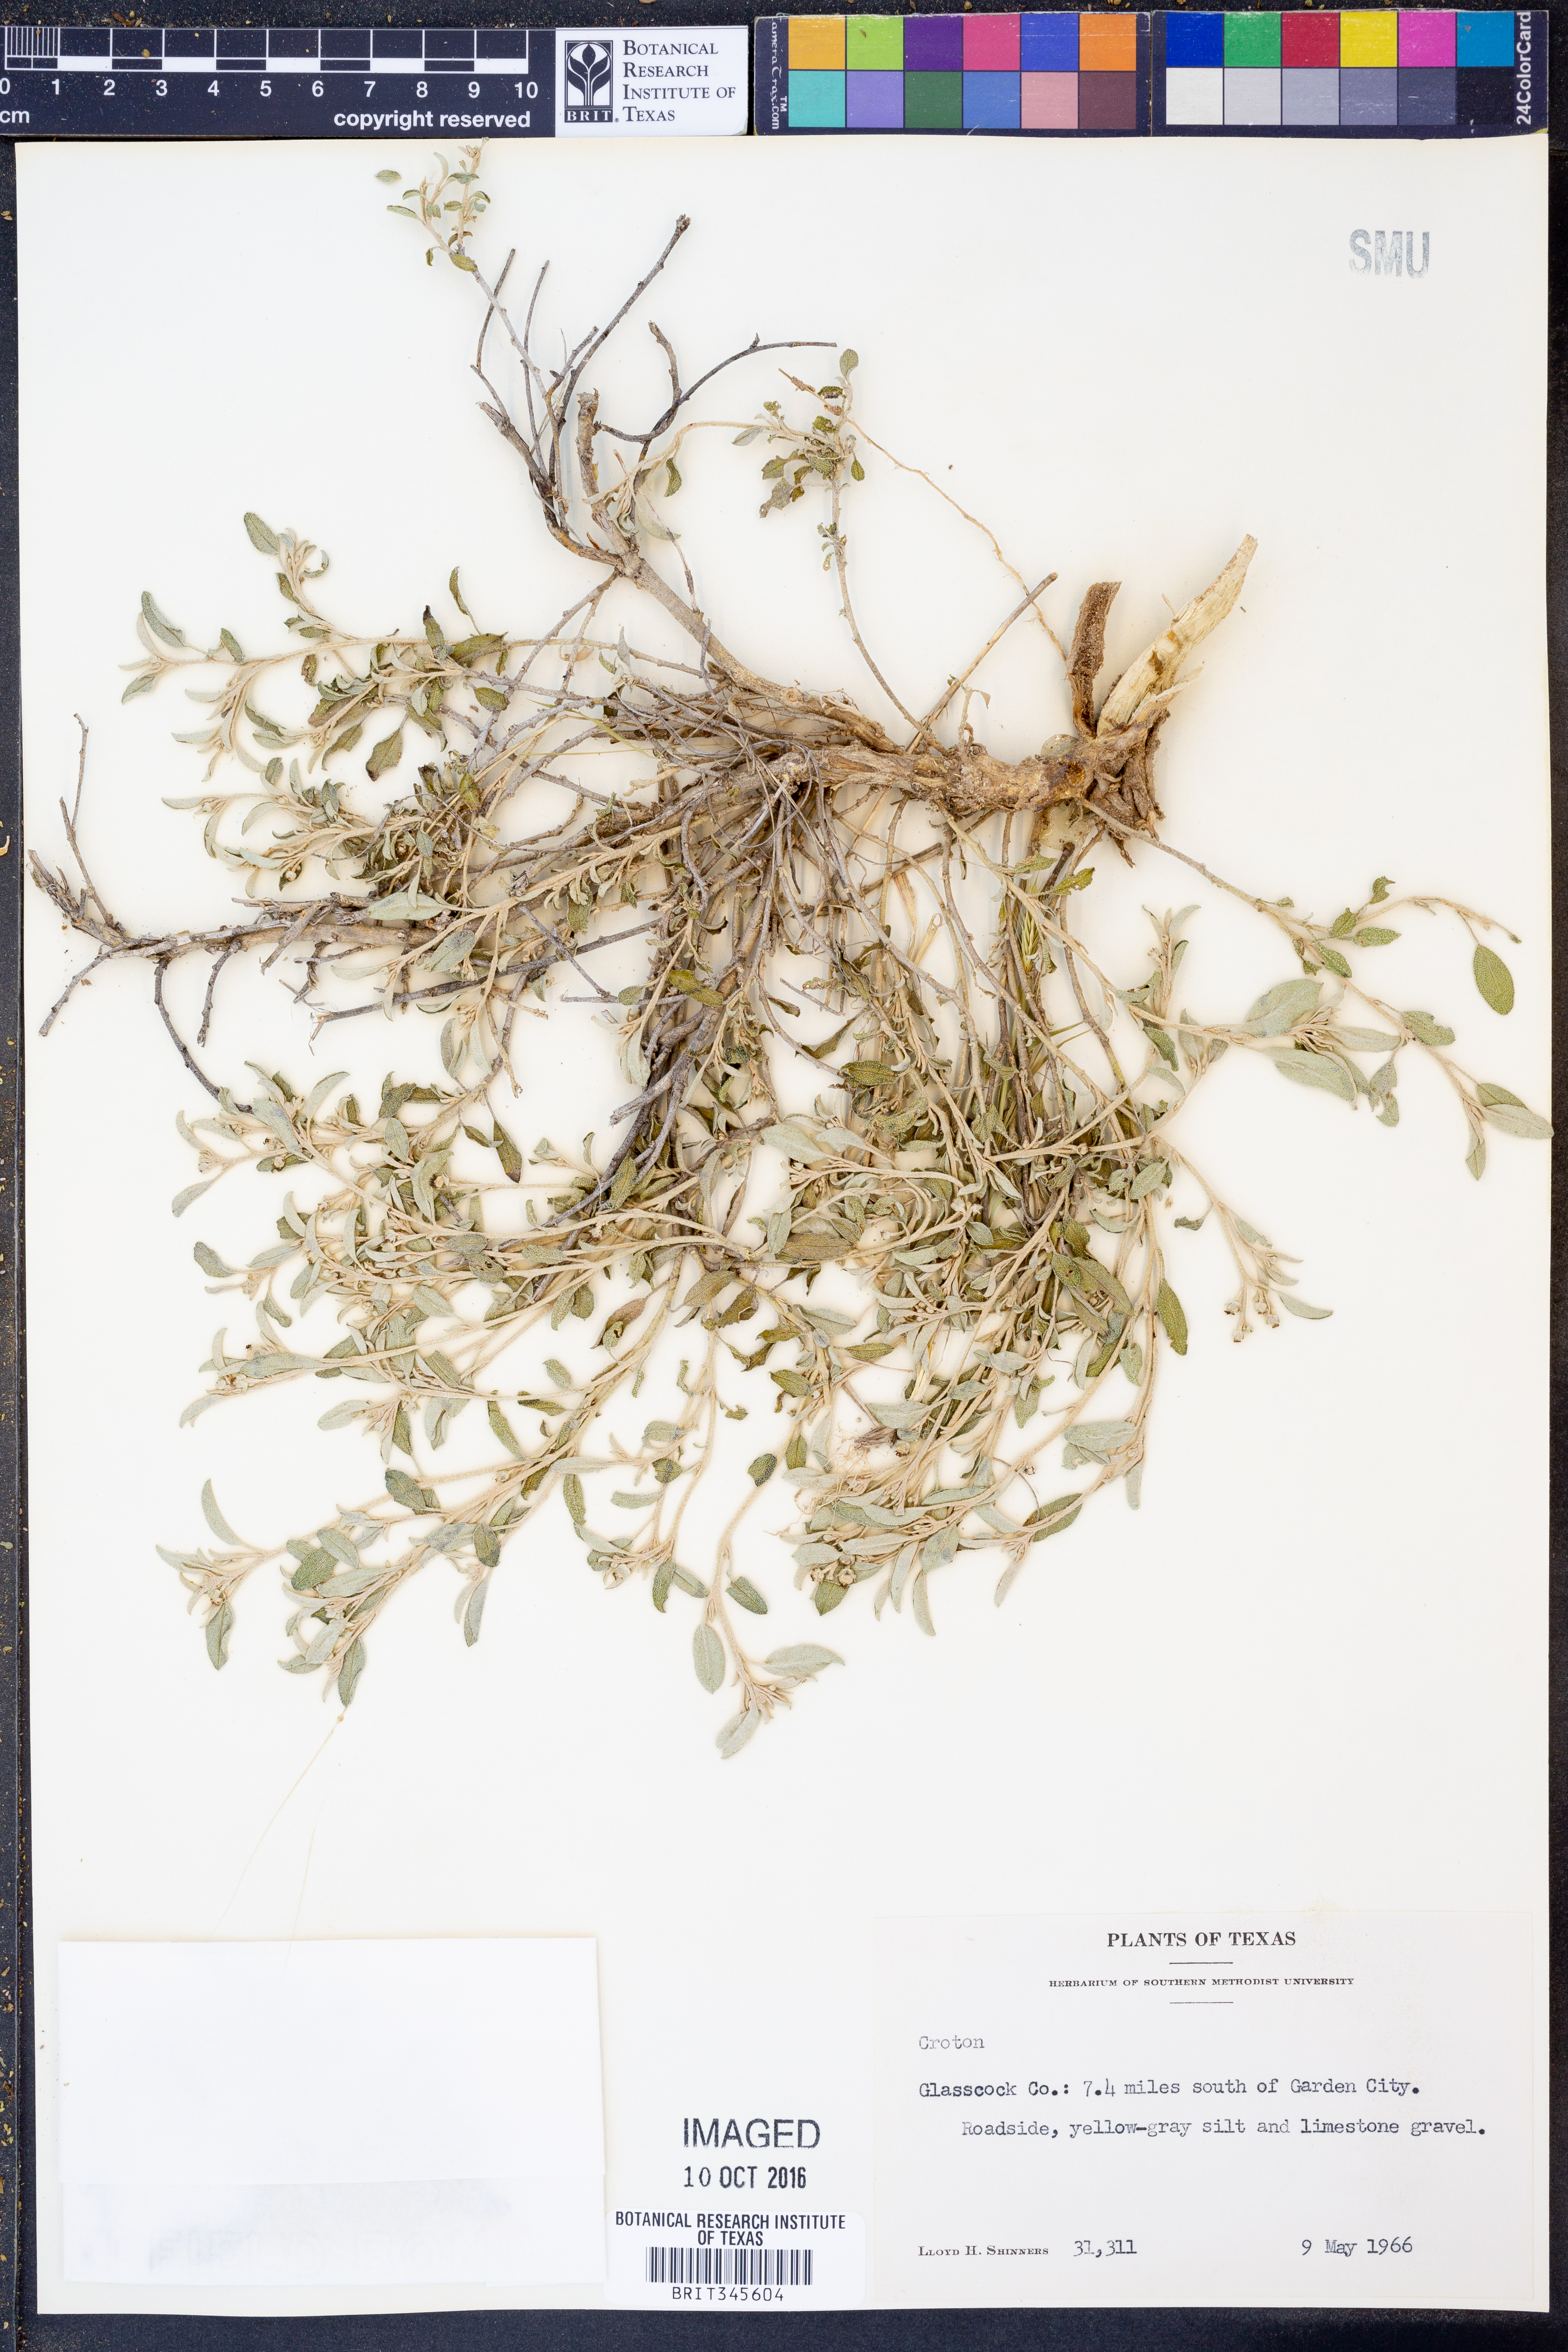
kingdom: Plantae
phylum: Tracheophyta
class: Magnoliopsida
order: Malpighiales
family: Euphorbiaceae
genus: Croton
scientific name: Croton
